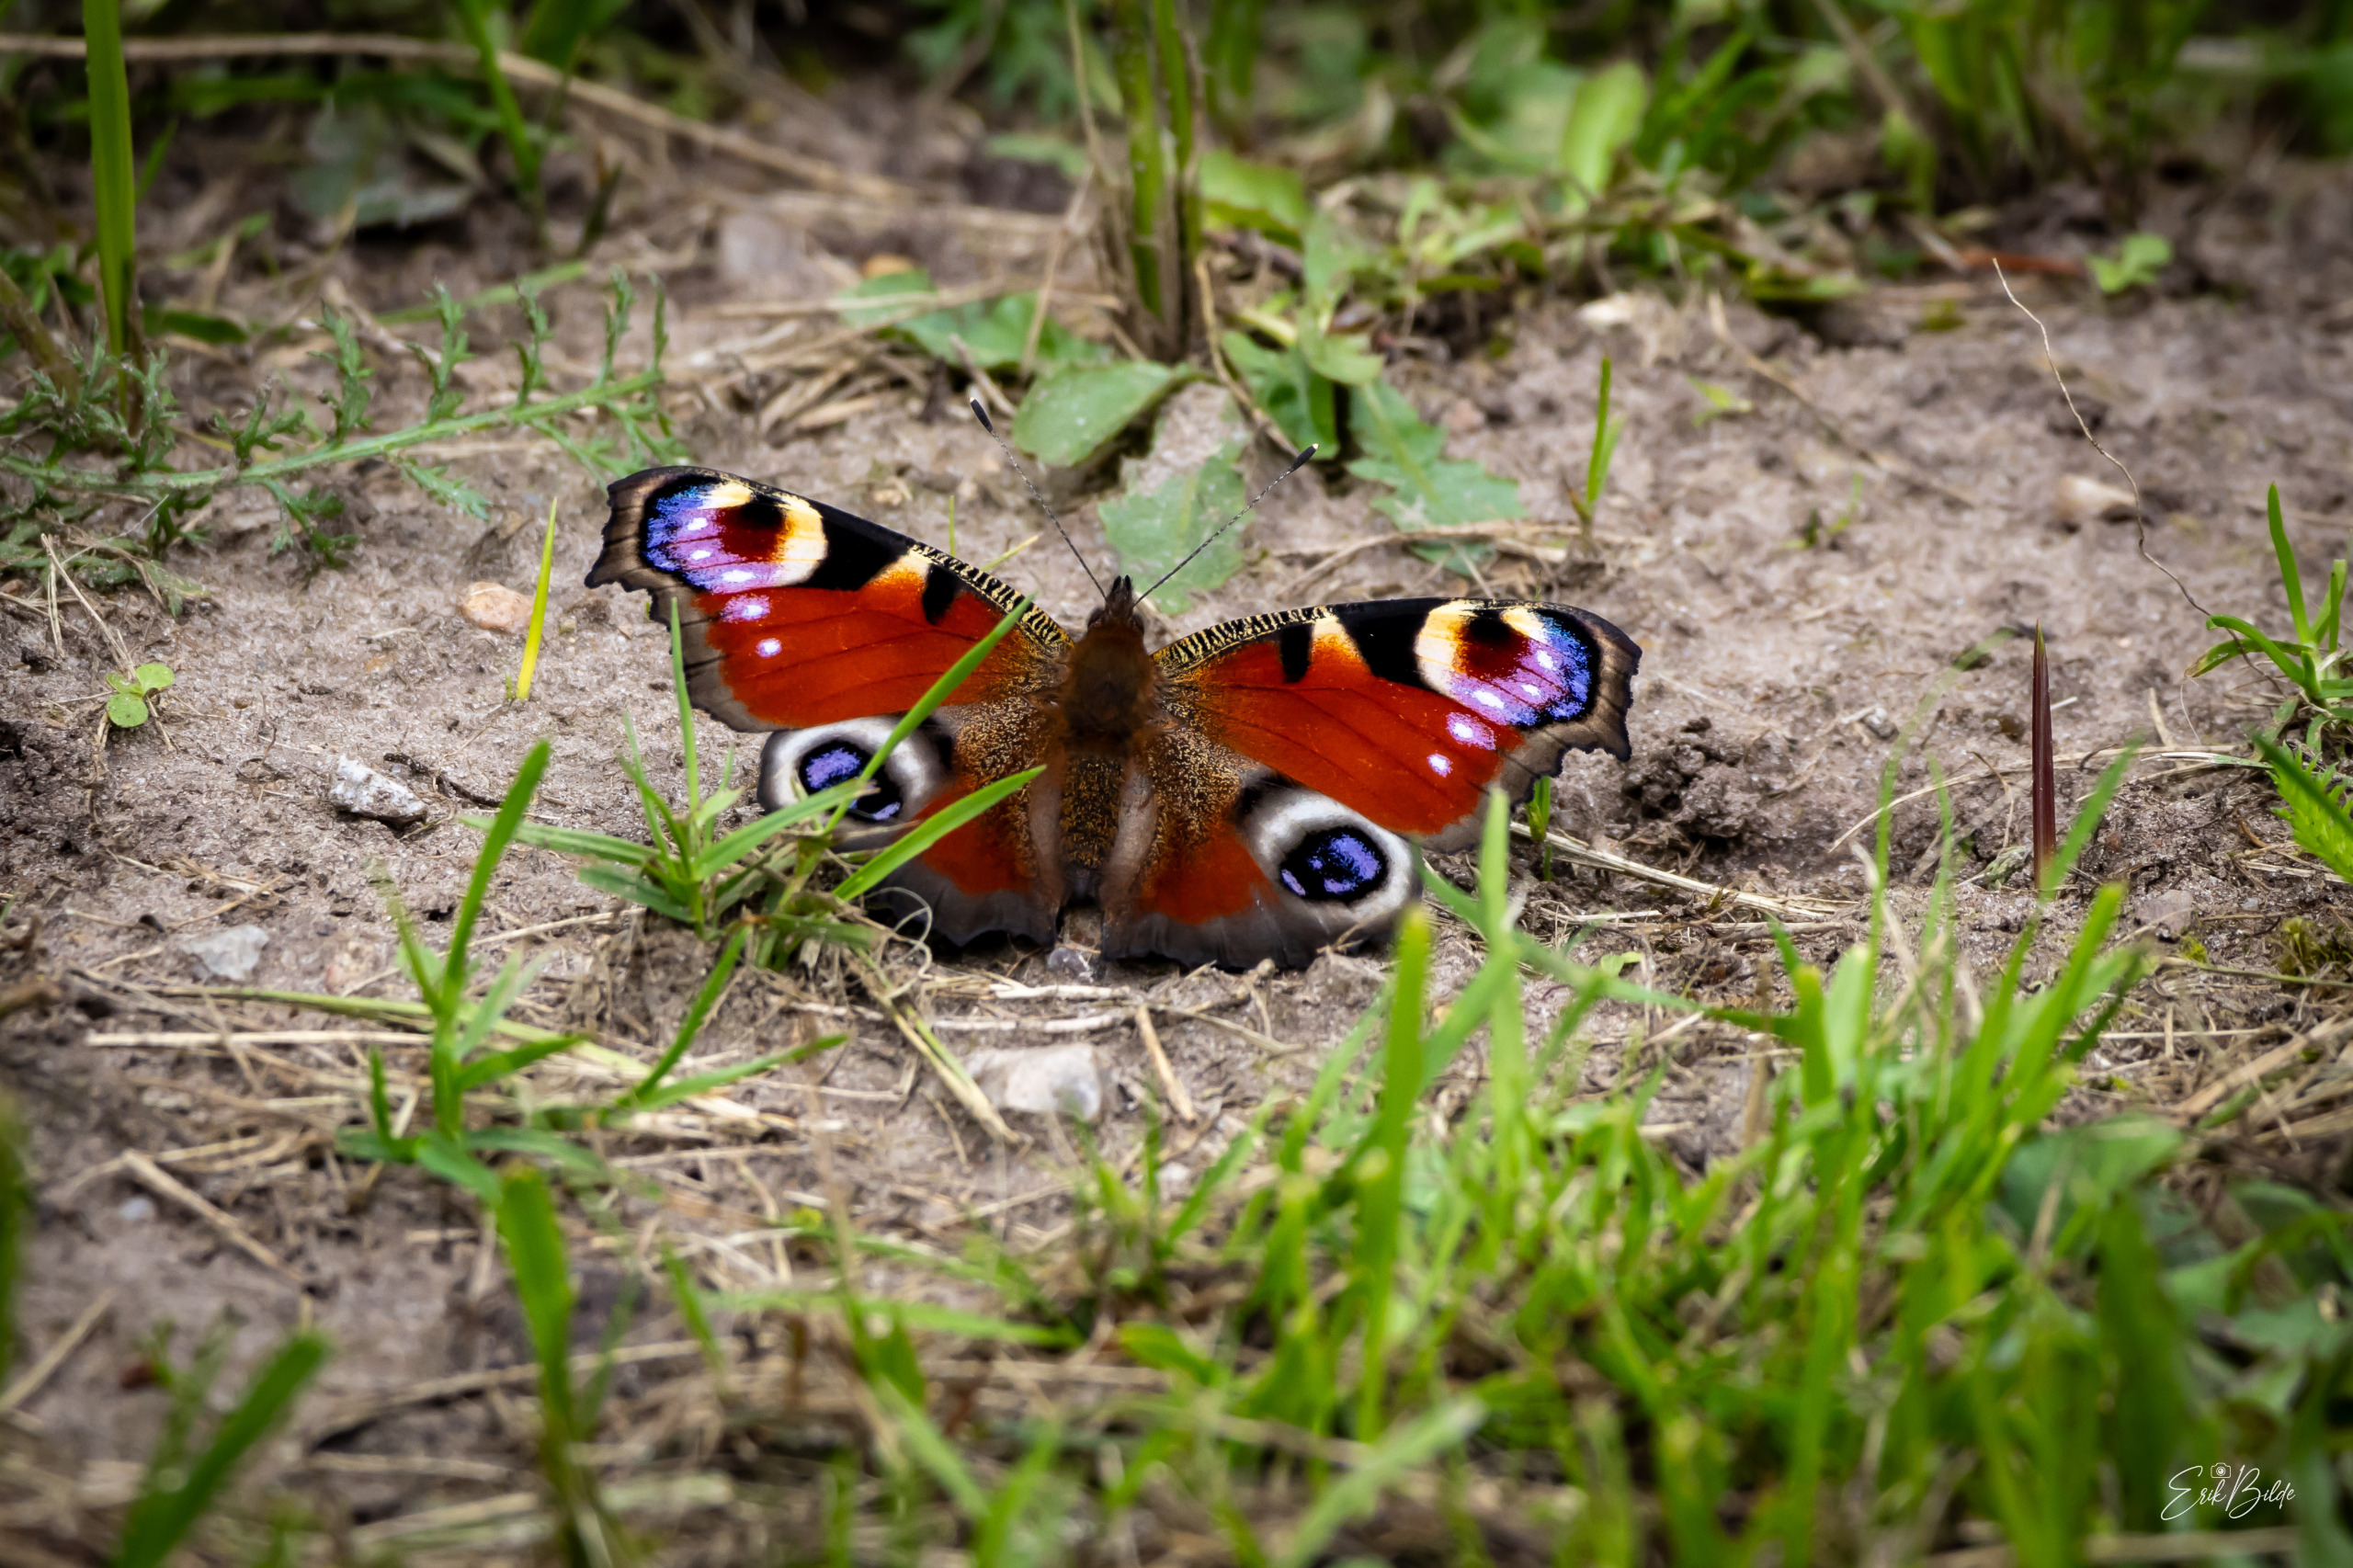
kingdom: Animalia
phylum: Arthropoda
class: Insecta
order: Lepidoptera
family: Nymphalidae
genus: Aglais
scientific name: Aglais io
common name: Dagpåfugleøje
